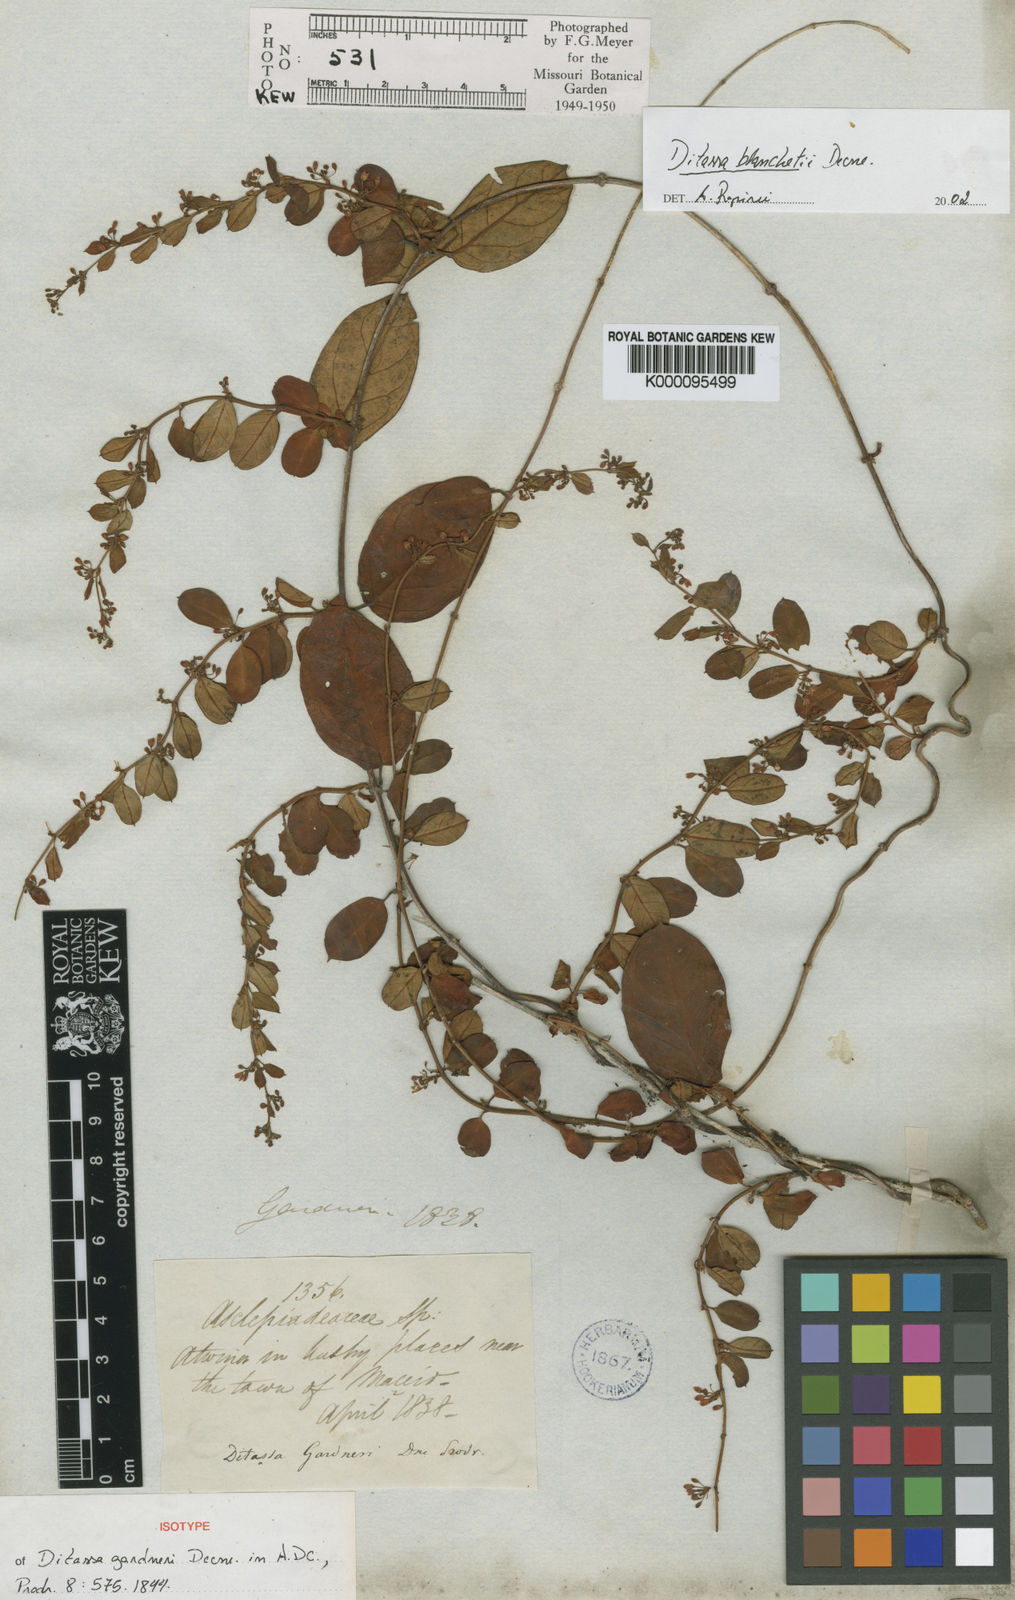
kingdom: Plantae
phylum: Tracheophyta
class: Magnoliopsida
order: Gentianales
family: Apocynaceae
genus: Ditassa
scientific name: Ditassa blanchetii
